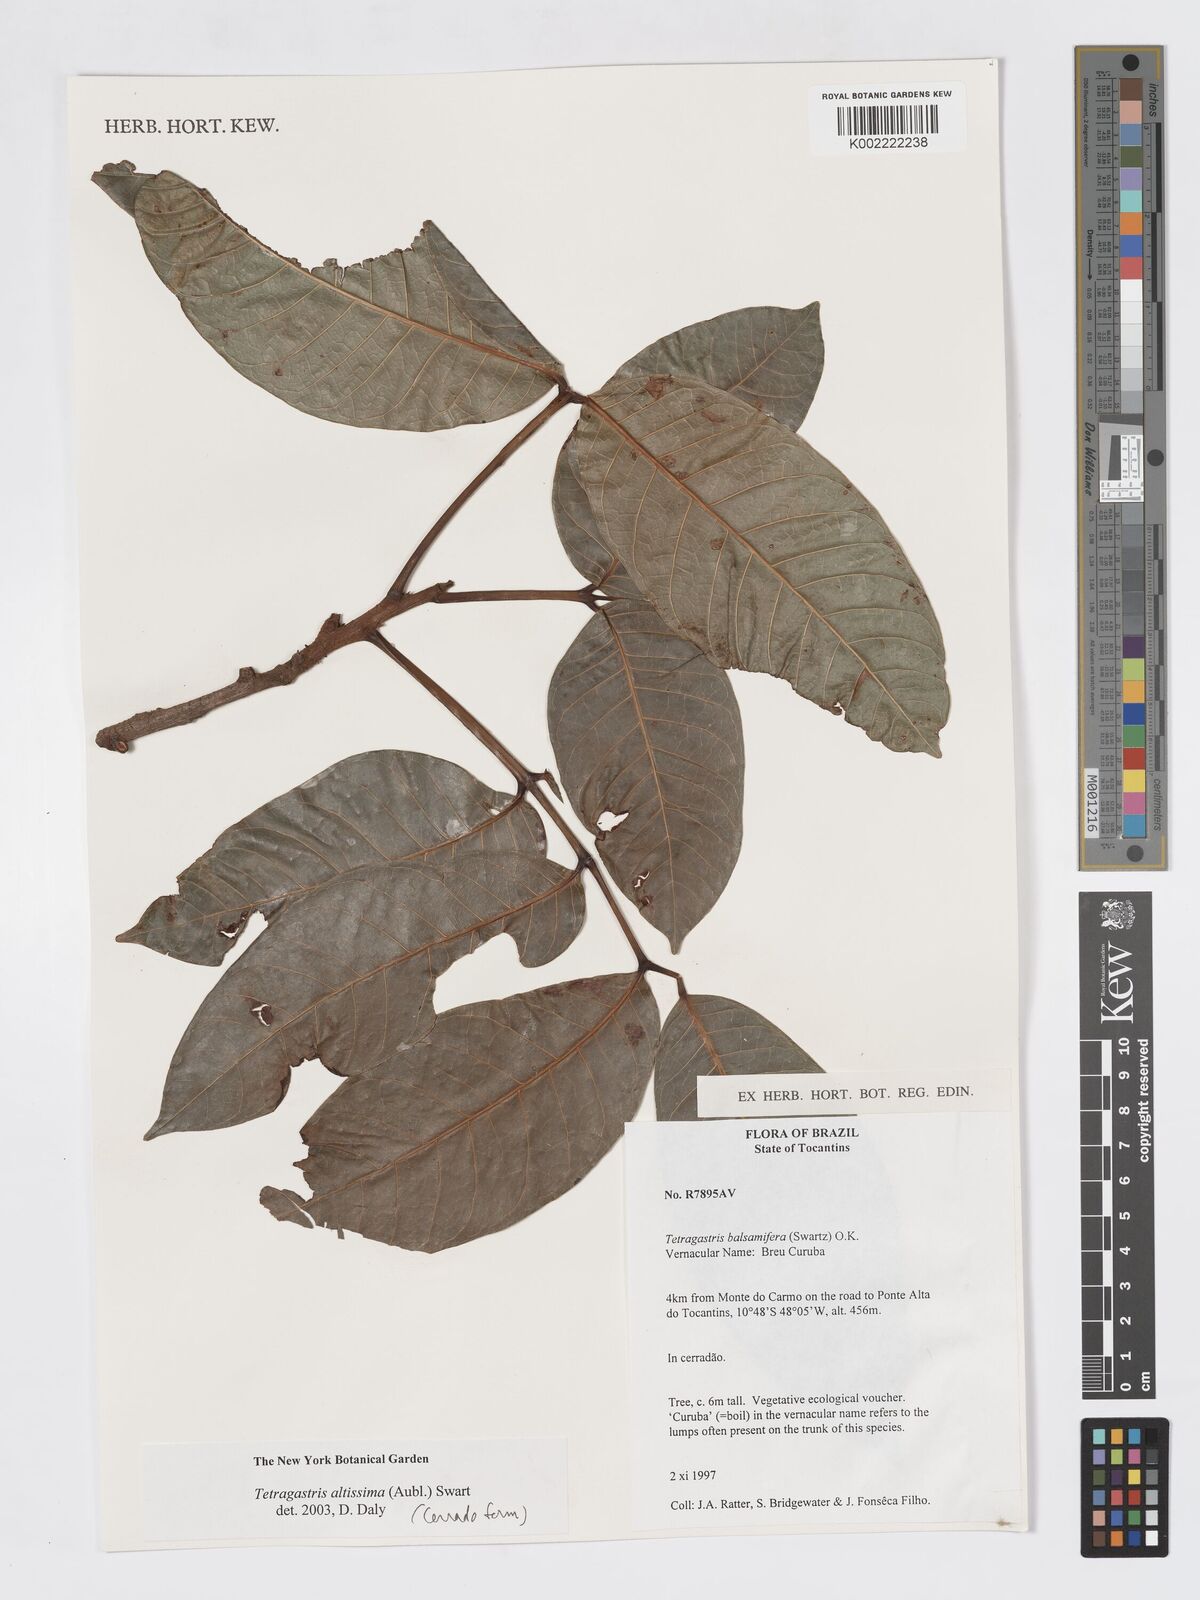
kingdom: Plantae
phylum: Tracheophyta
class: Magnoliopsida
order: Sapindales
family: Burseraceae
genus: Tetragastris
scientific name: Tetragastris altissima
